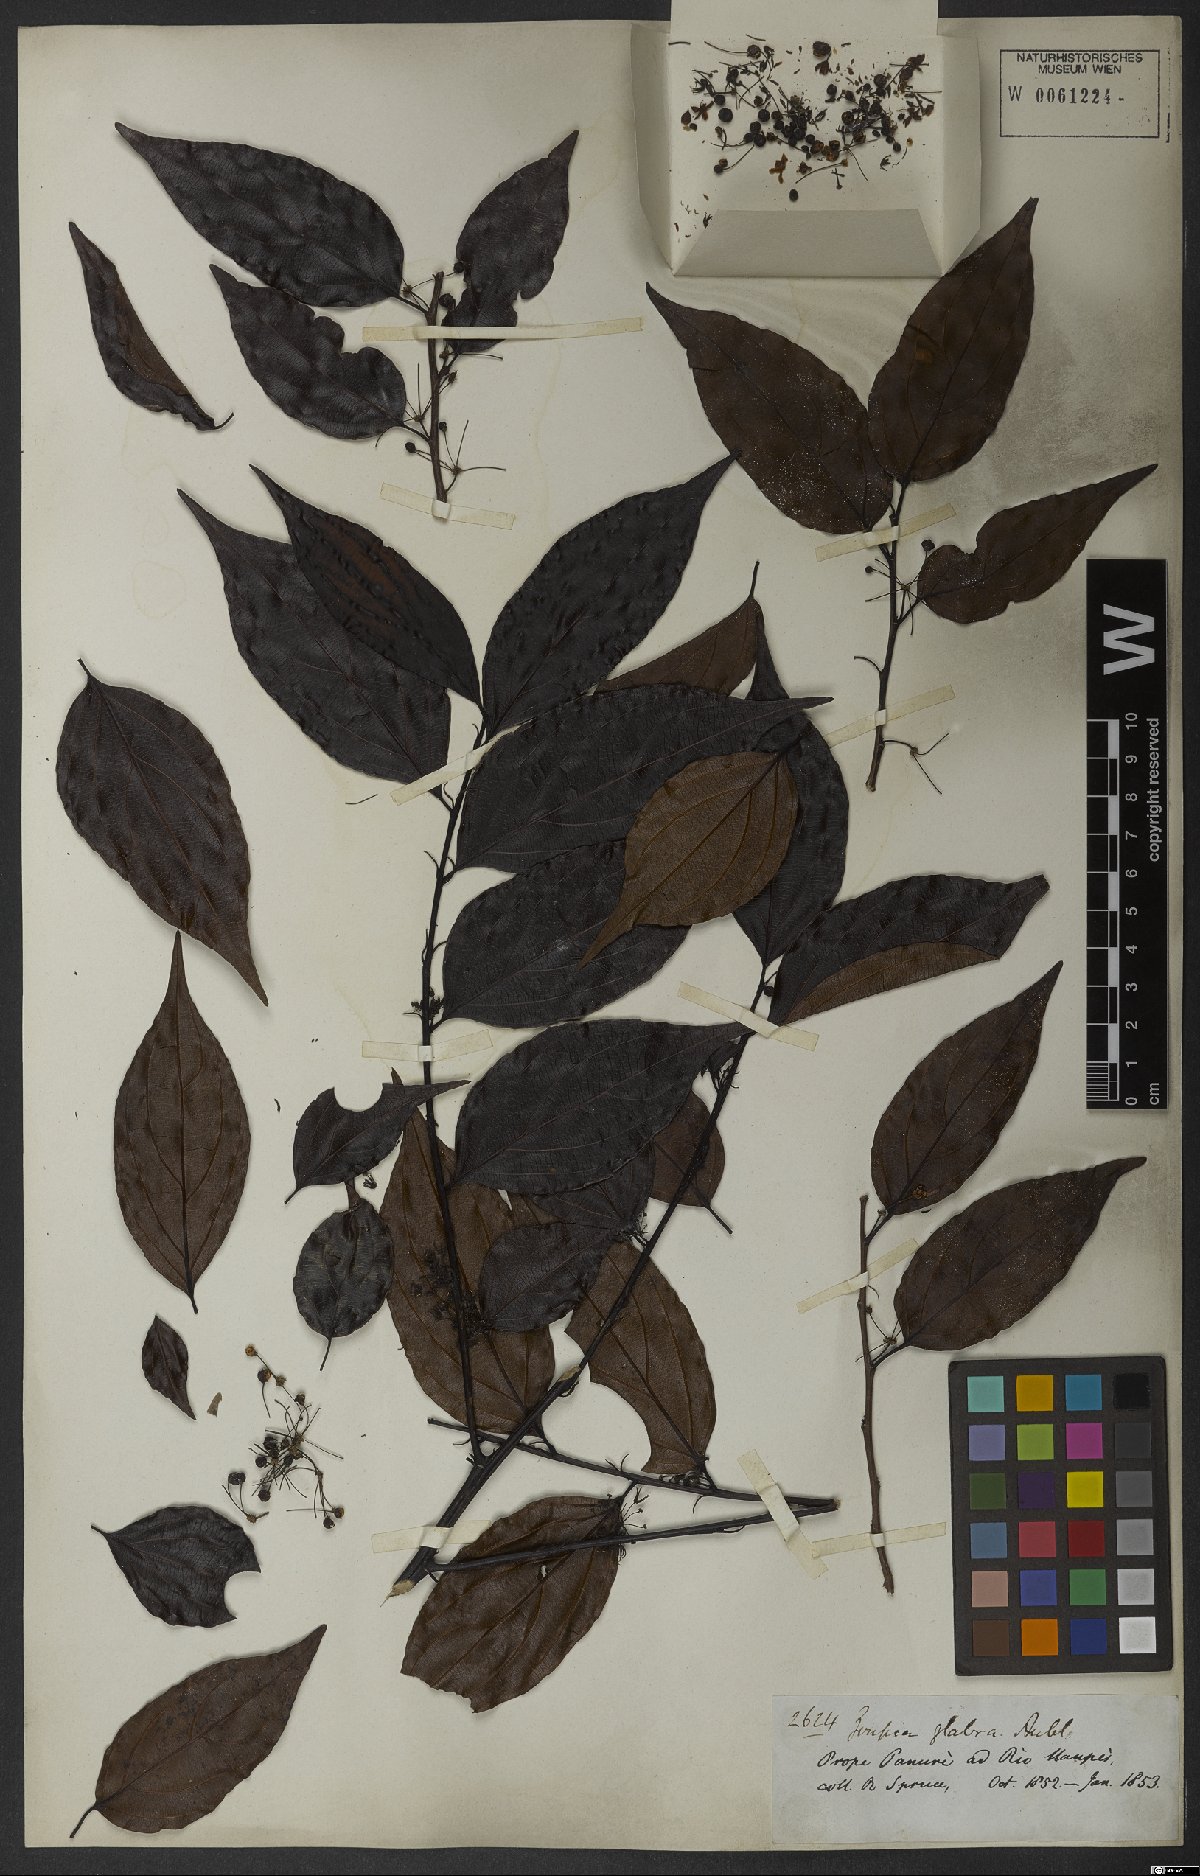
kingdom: Plantae
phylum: Tracheophyta
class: Magnoliopsida
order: Malpighiales
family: Goupiaceae
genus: Goupia
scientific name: Goupia glabra
